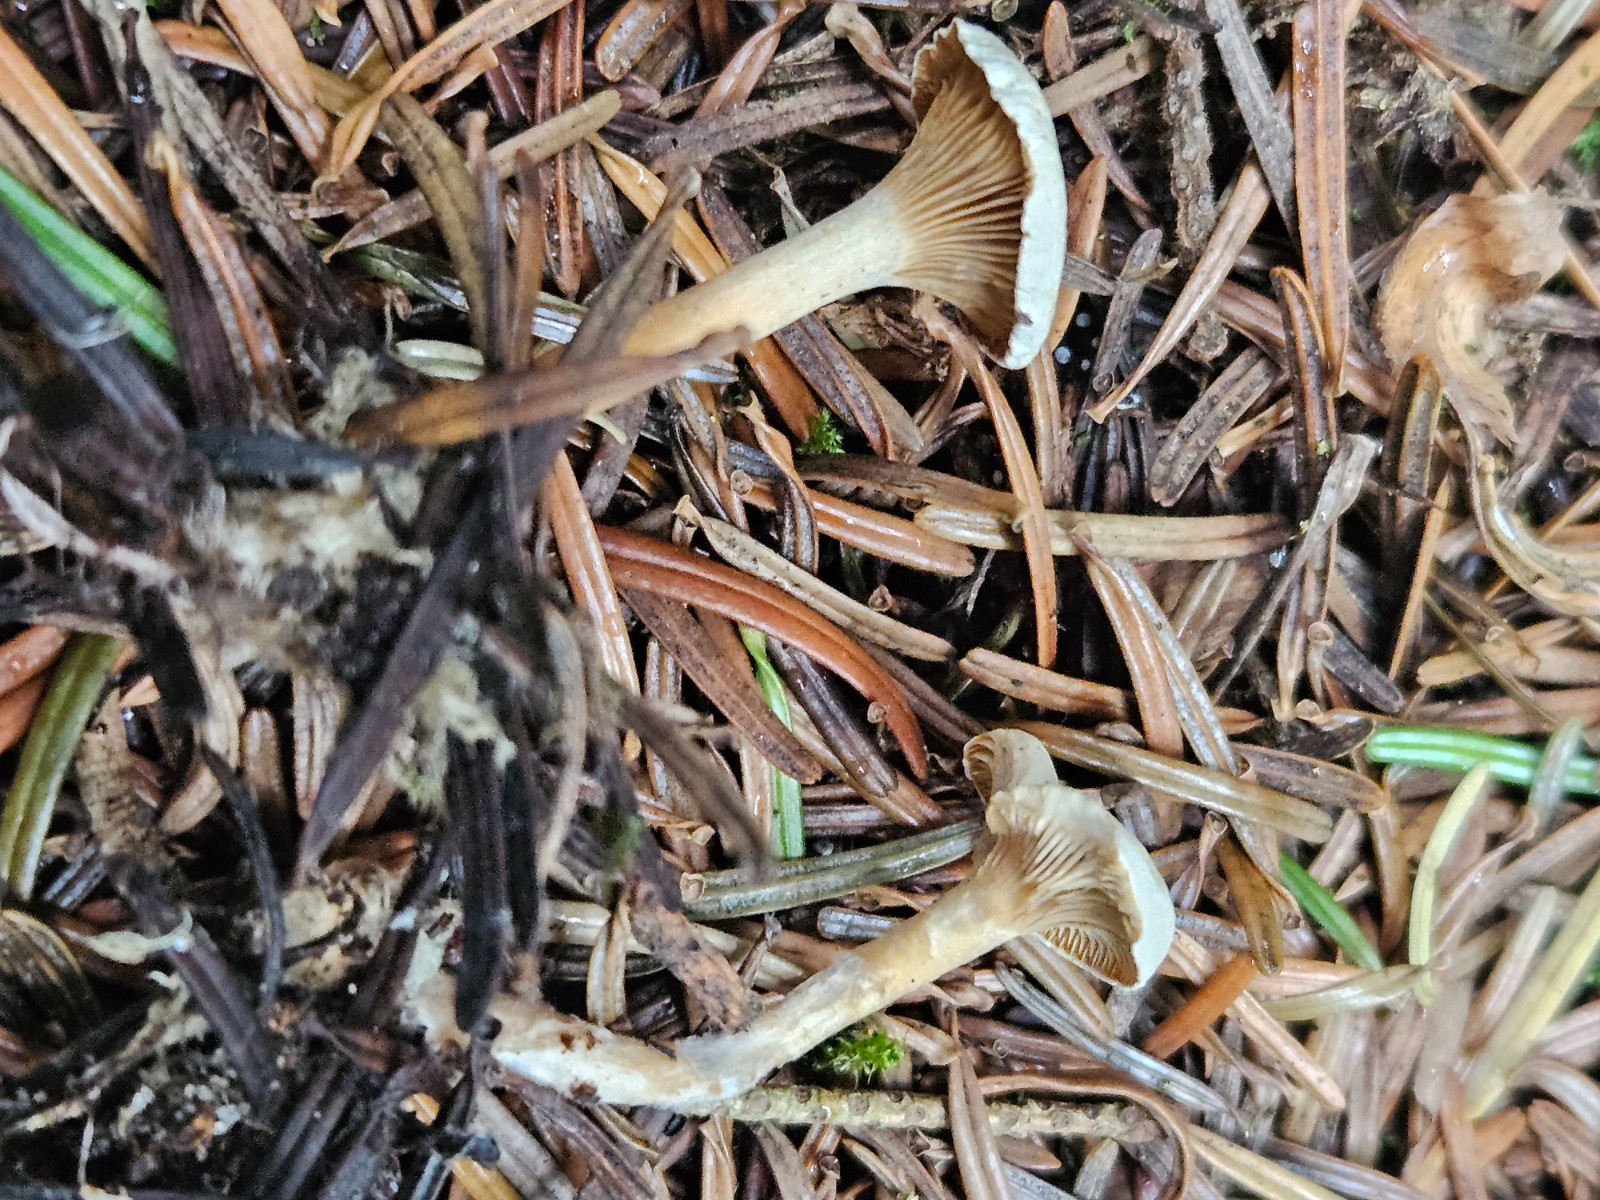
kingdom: Fungi
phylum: Basidiomycota
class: Agaricomycetes
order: Agaricales
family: Tricholomataceae
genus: Ripartites
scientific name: Ripartites tricholoma
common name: almindelig skæghat
